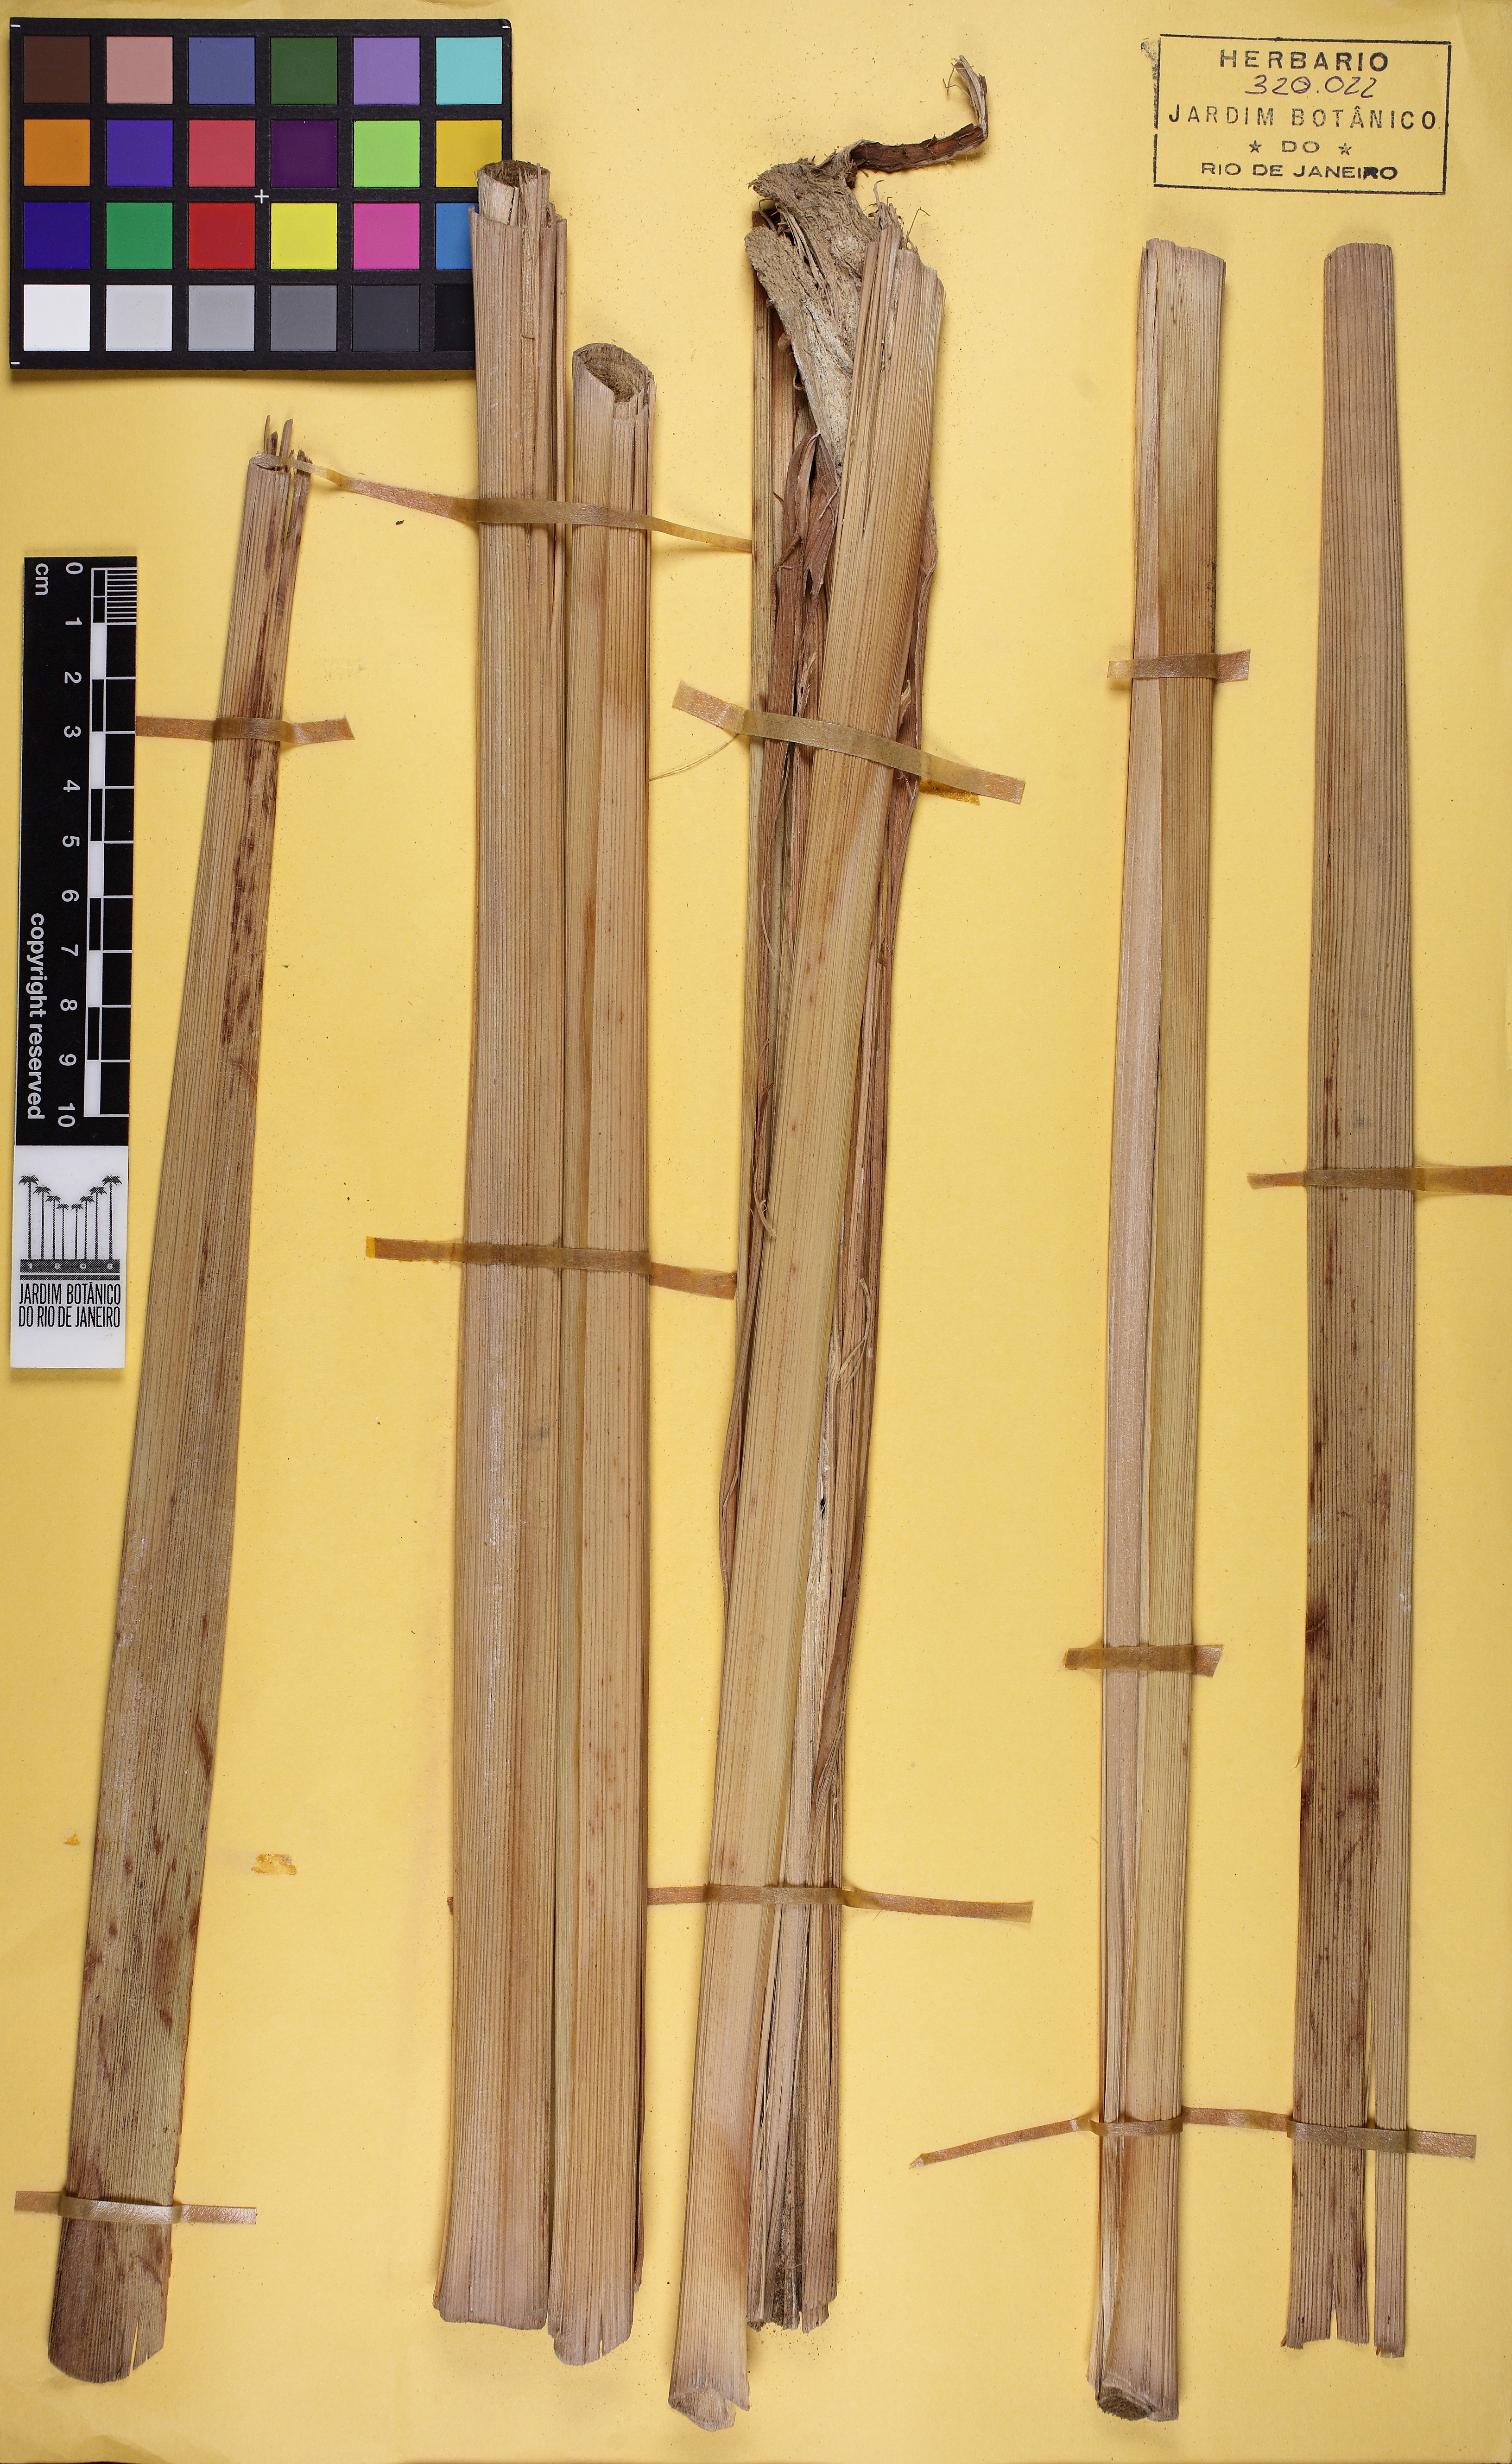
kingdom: Plantae
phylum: Tracheophyta
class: Liliopsida
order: Zingiberales
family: Zingiberaceae
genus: Renealmia
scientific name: Renealmia lucida
